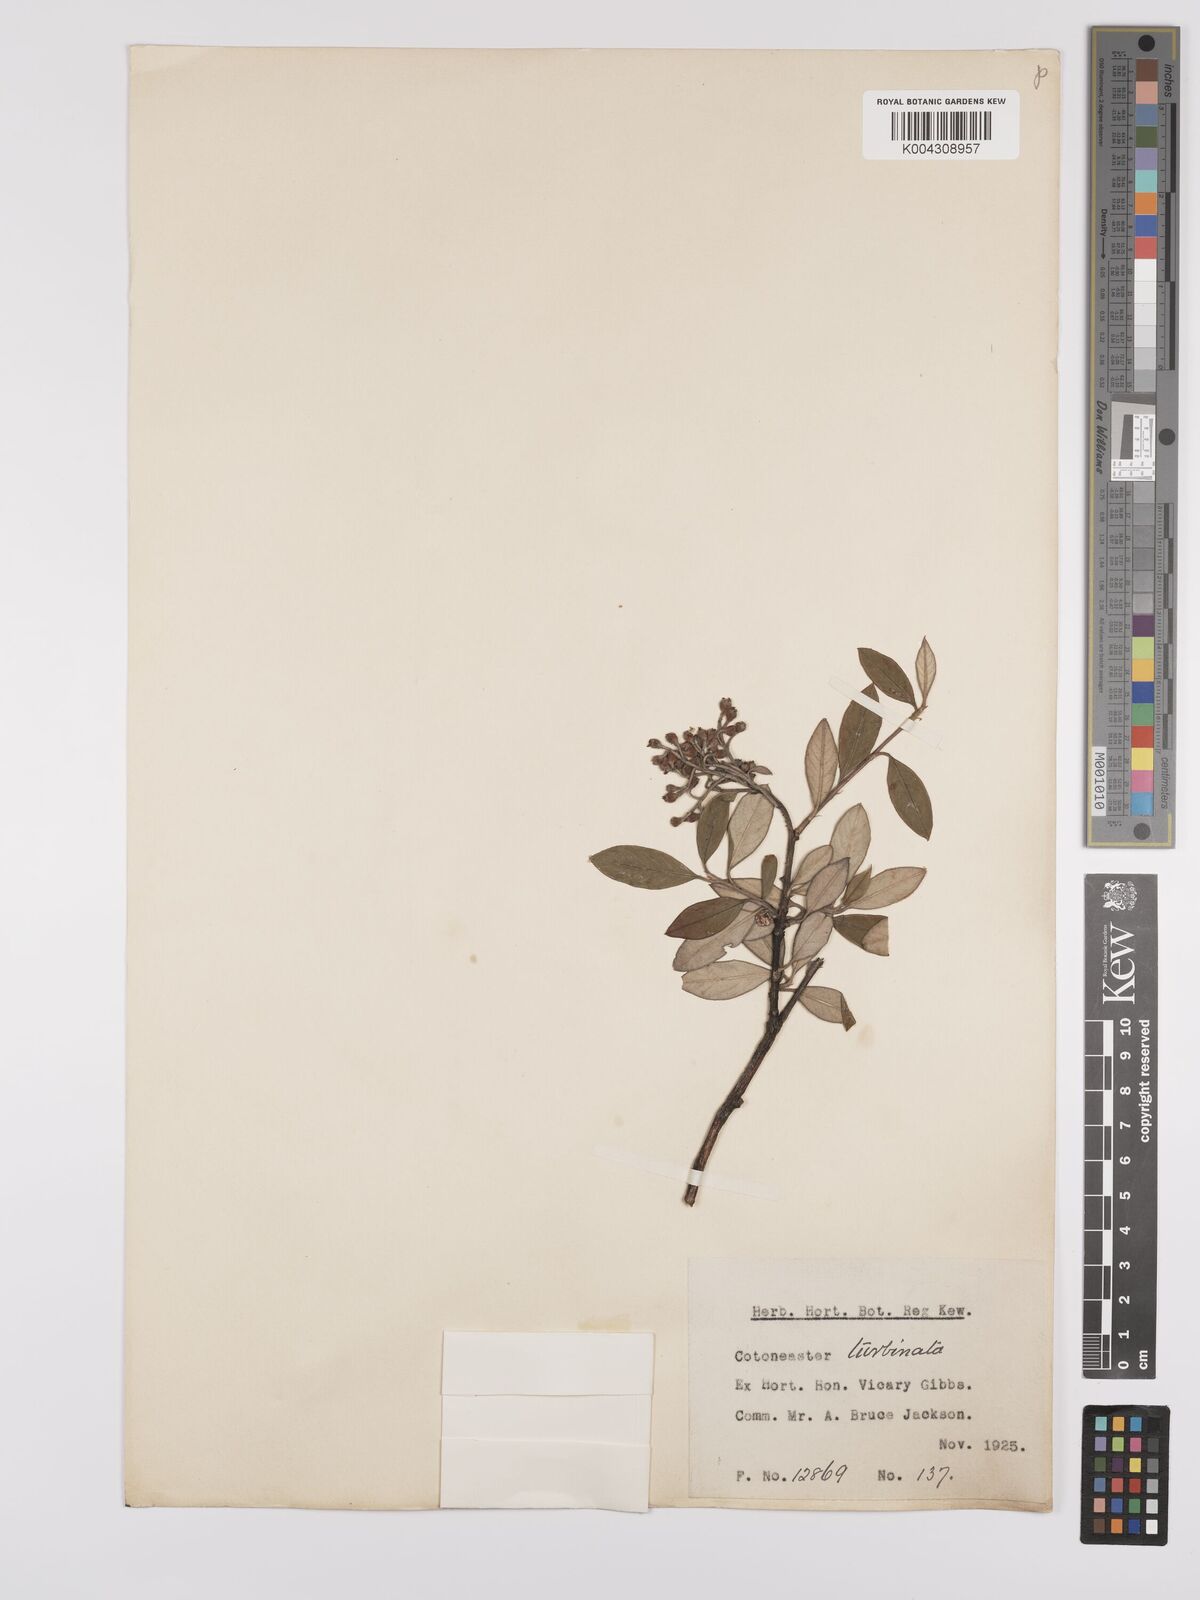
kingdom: Plantae
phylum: Tracheophyta
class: Magnoliopsida
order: Rosales
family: Rosaceae
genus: Cotoneaster
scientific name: Cotoneaster pannosus
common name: Silverleaf cotoneaster
